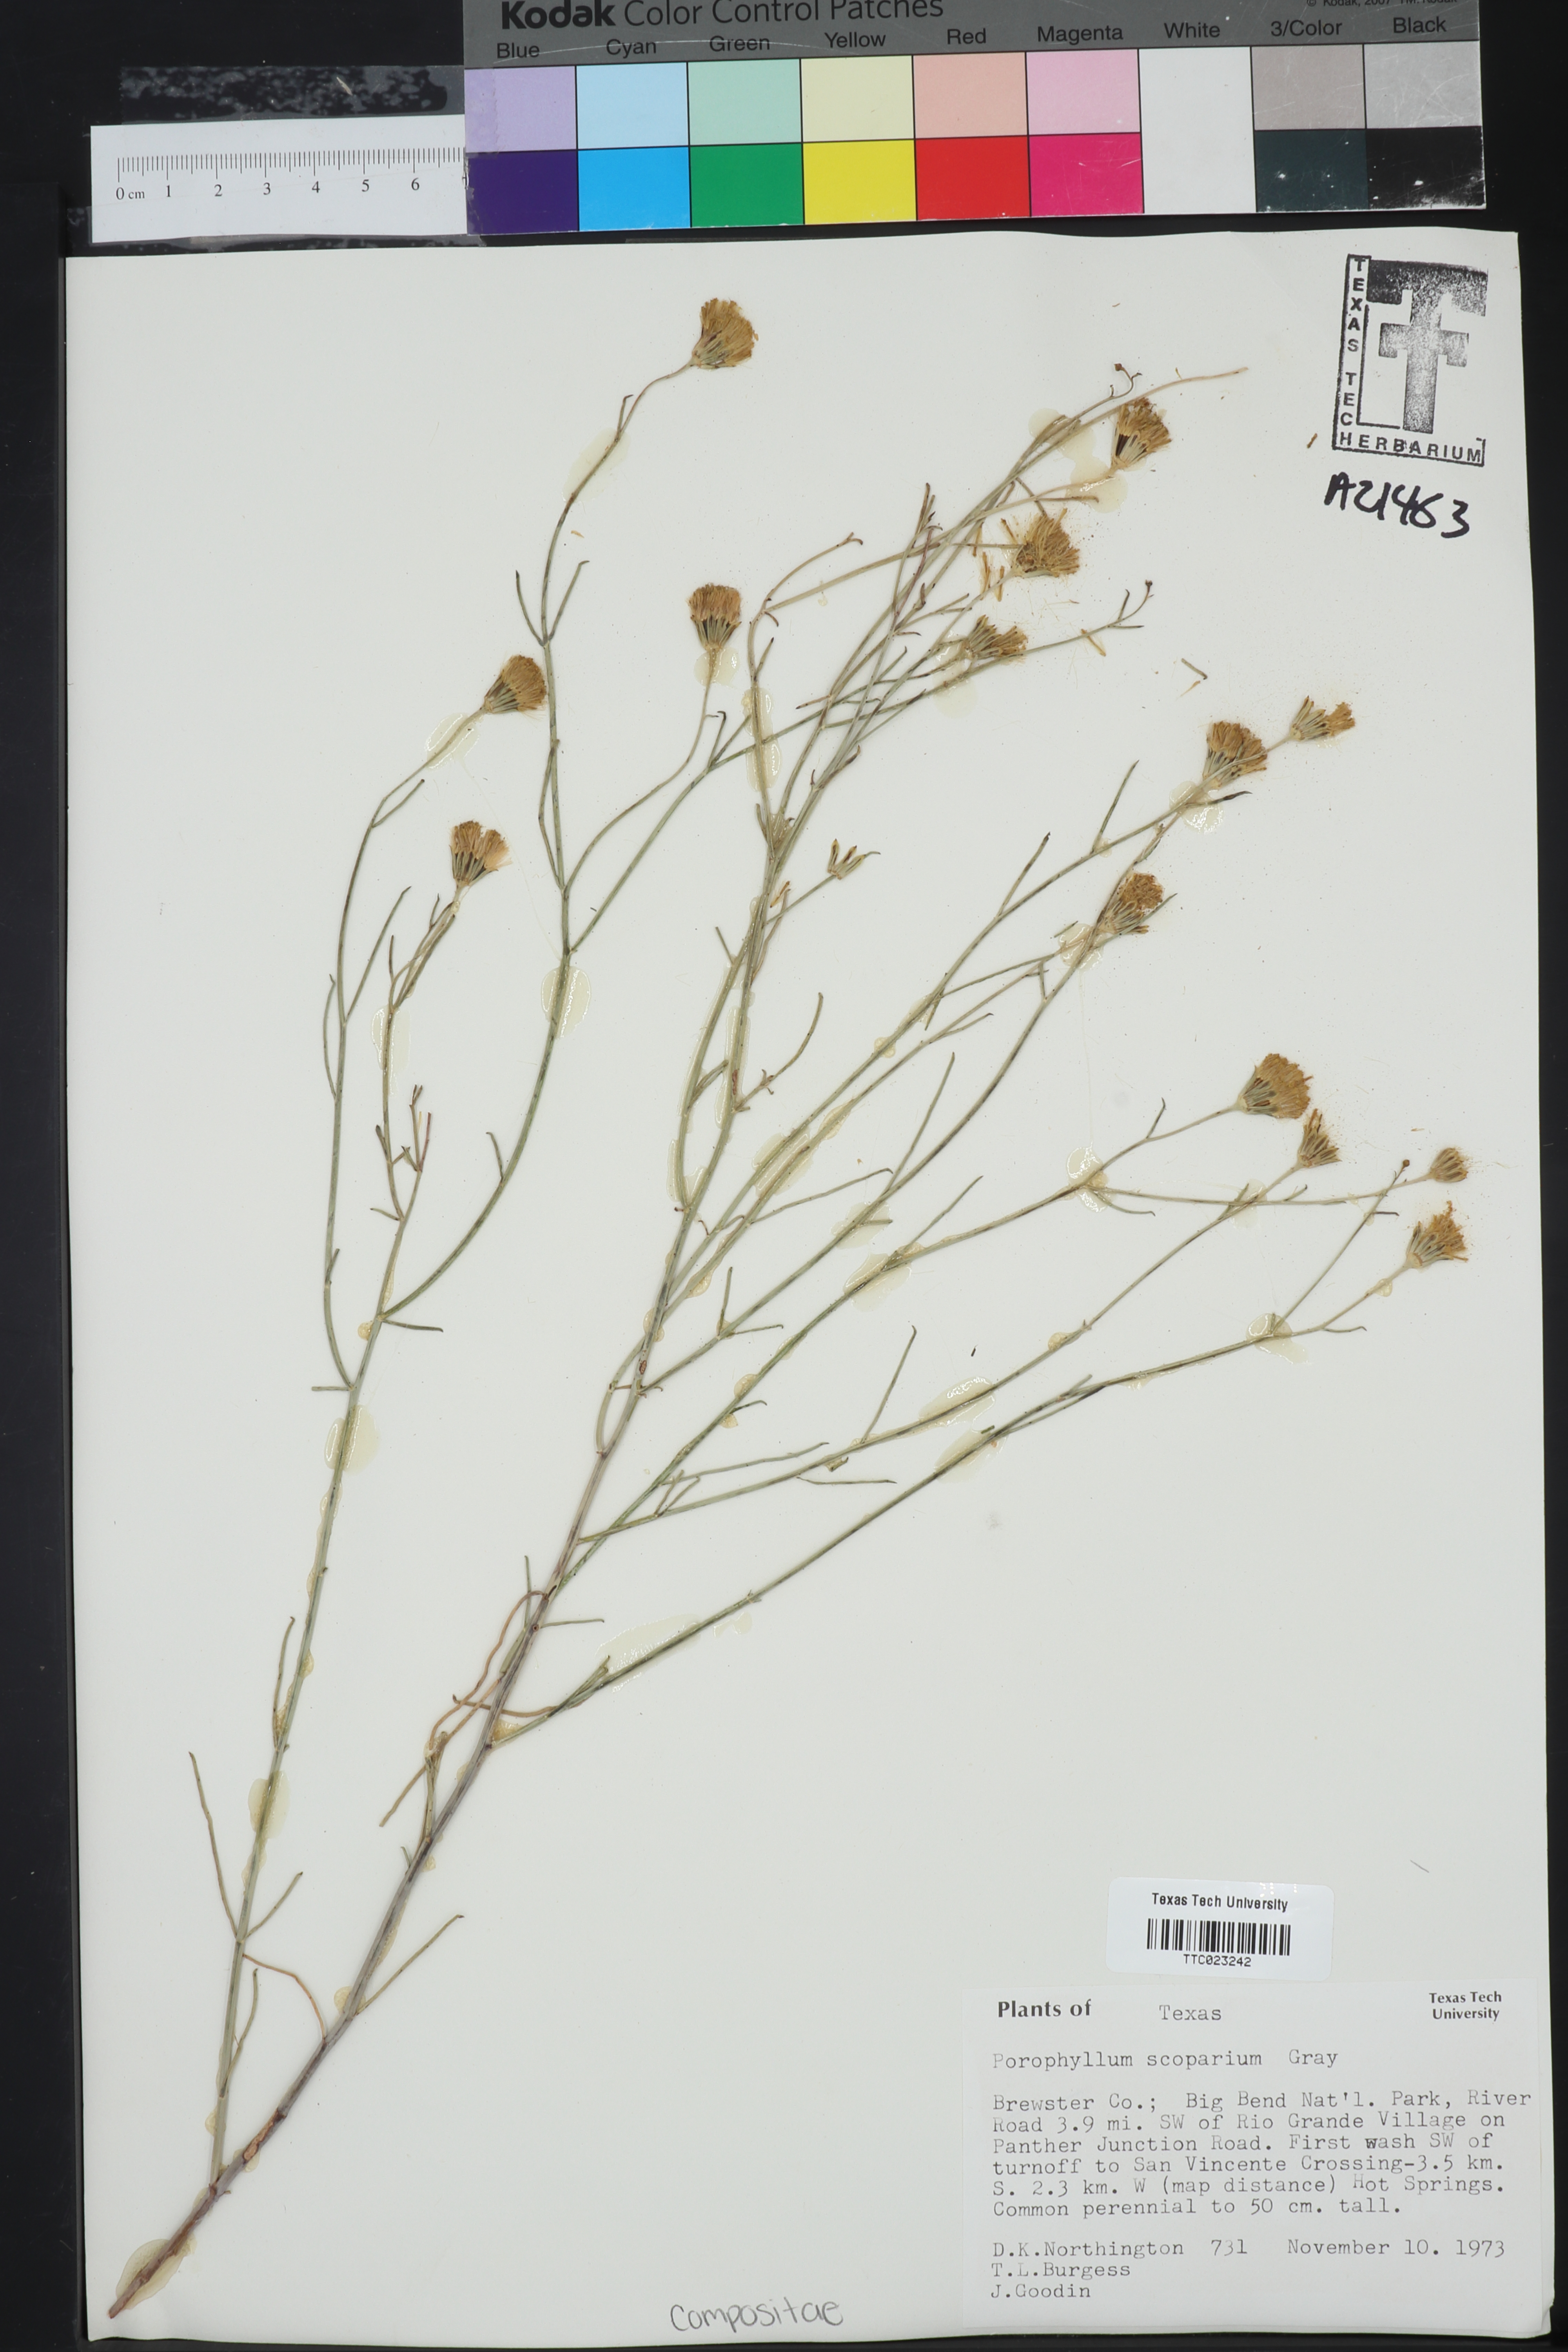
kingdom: Plantae
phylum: Tracheophyta
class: Magnoliopsida
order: Asterales
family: Asteraceae
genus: Porophyllum
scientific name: Porophyllum scoparium
